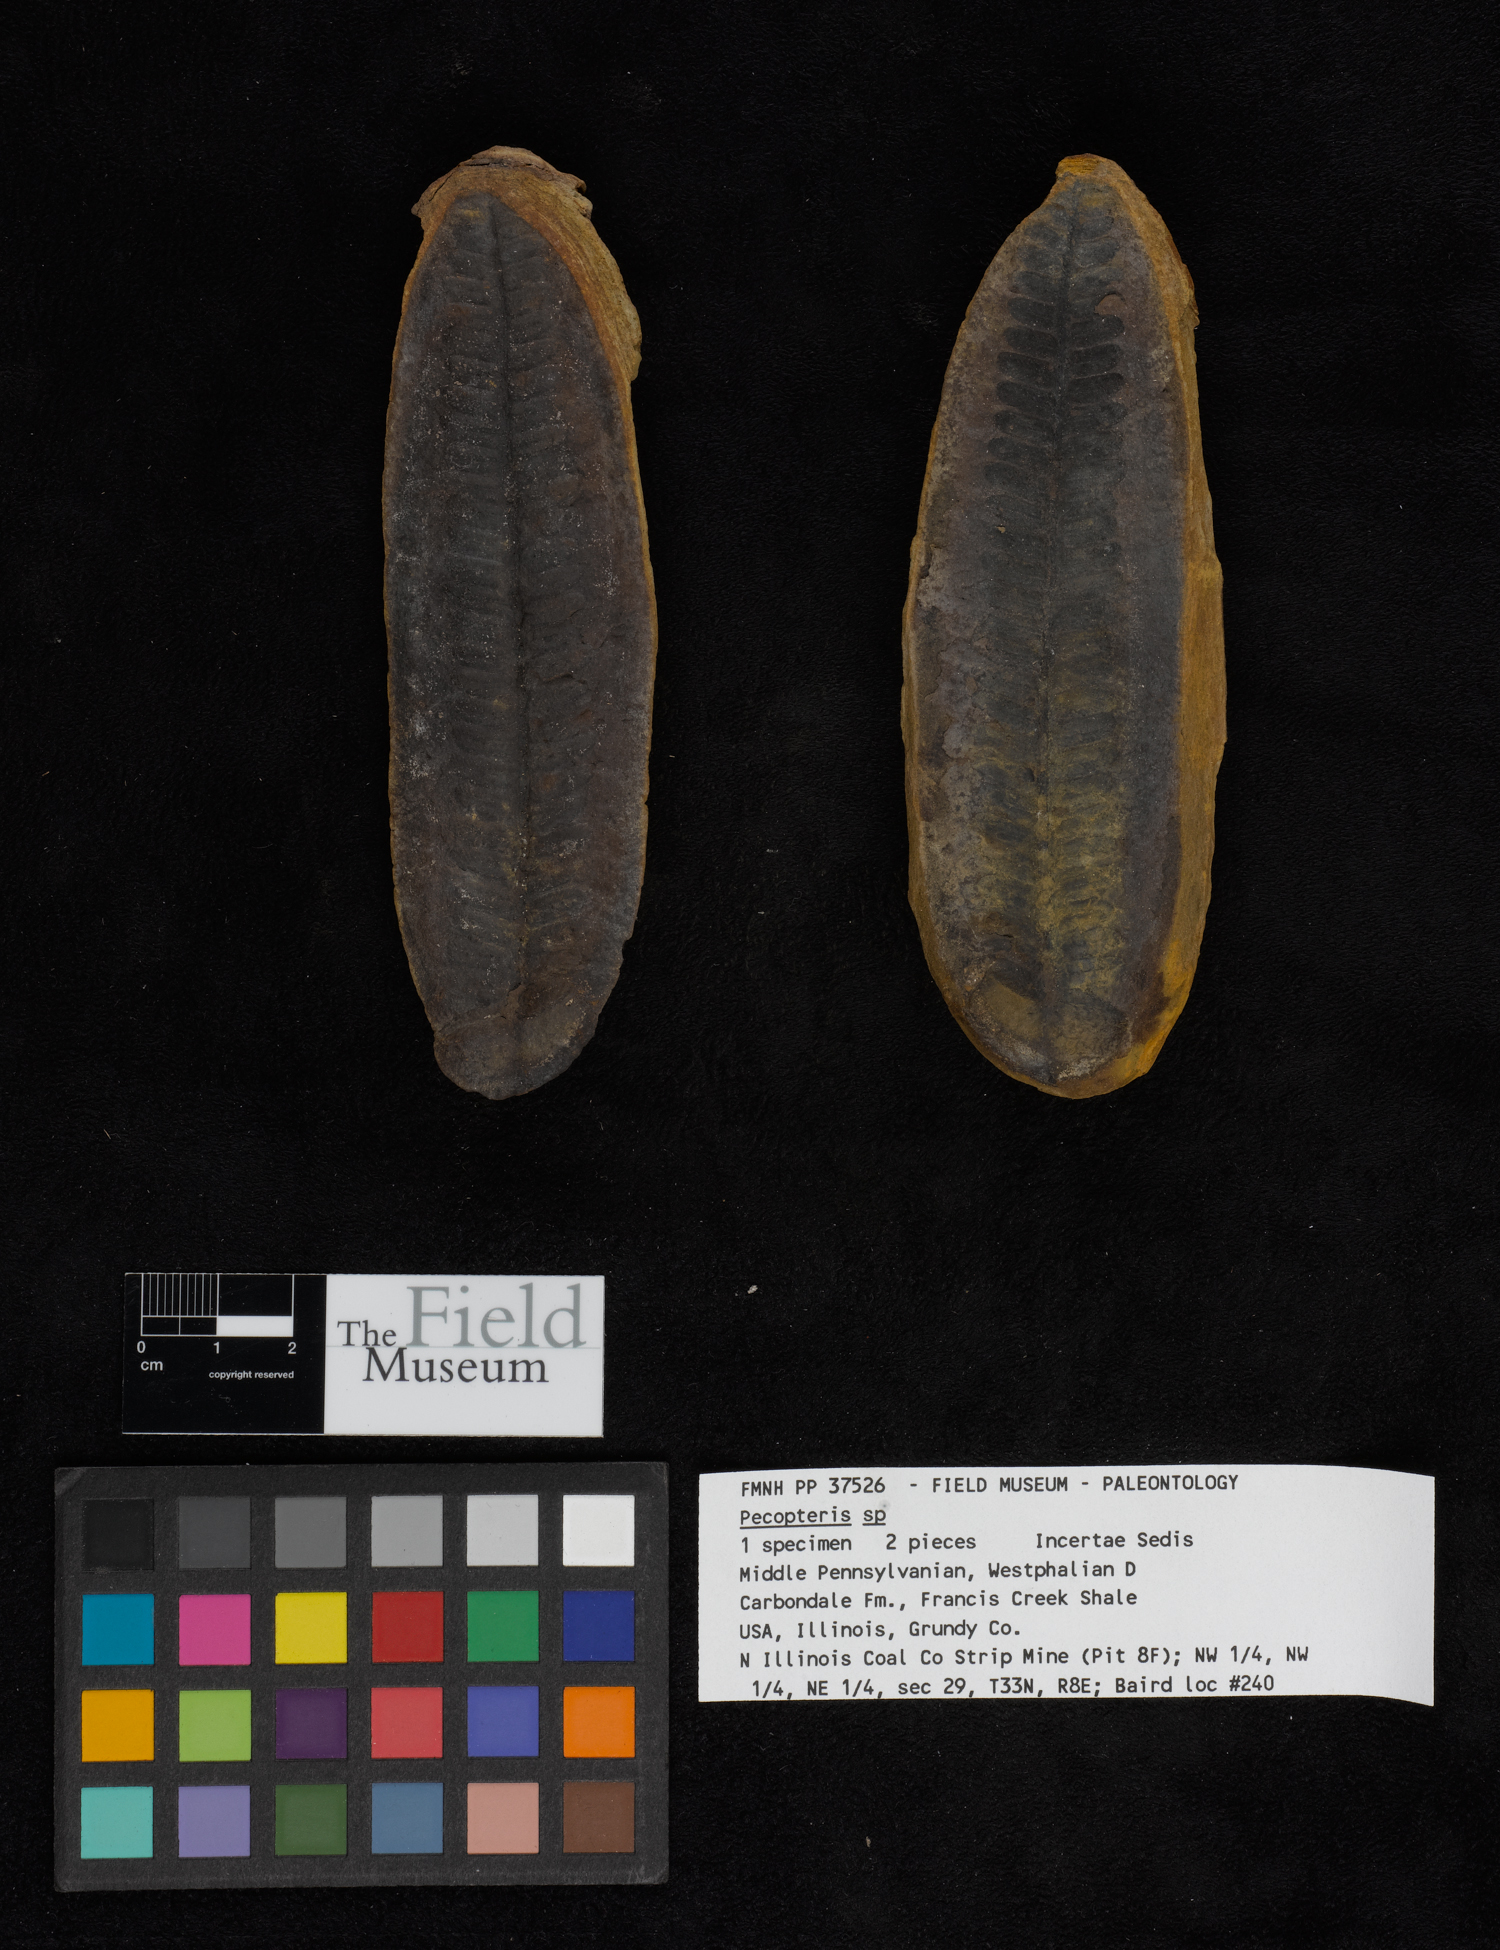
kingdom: Plantae
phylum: Tracheophyta
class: Polypodiopsida
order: Marattiales
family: Asterothecaceae
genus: Pecopteris
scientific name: Pecopteris
